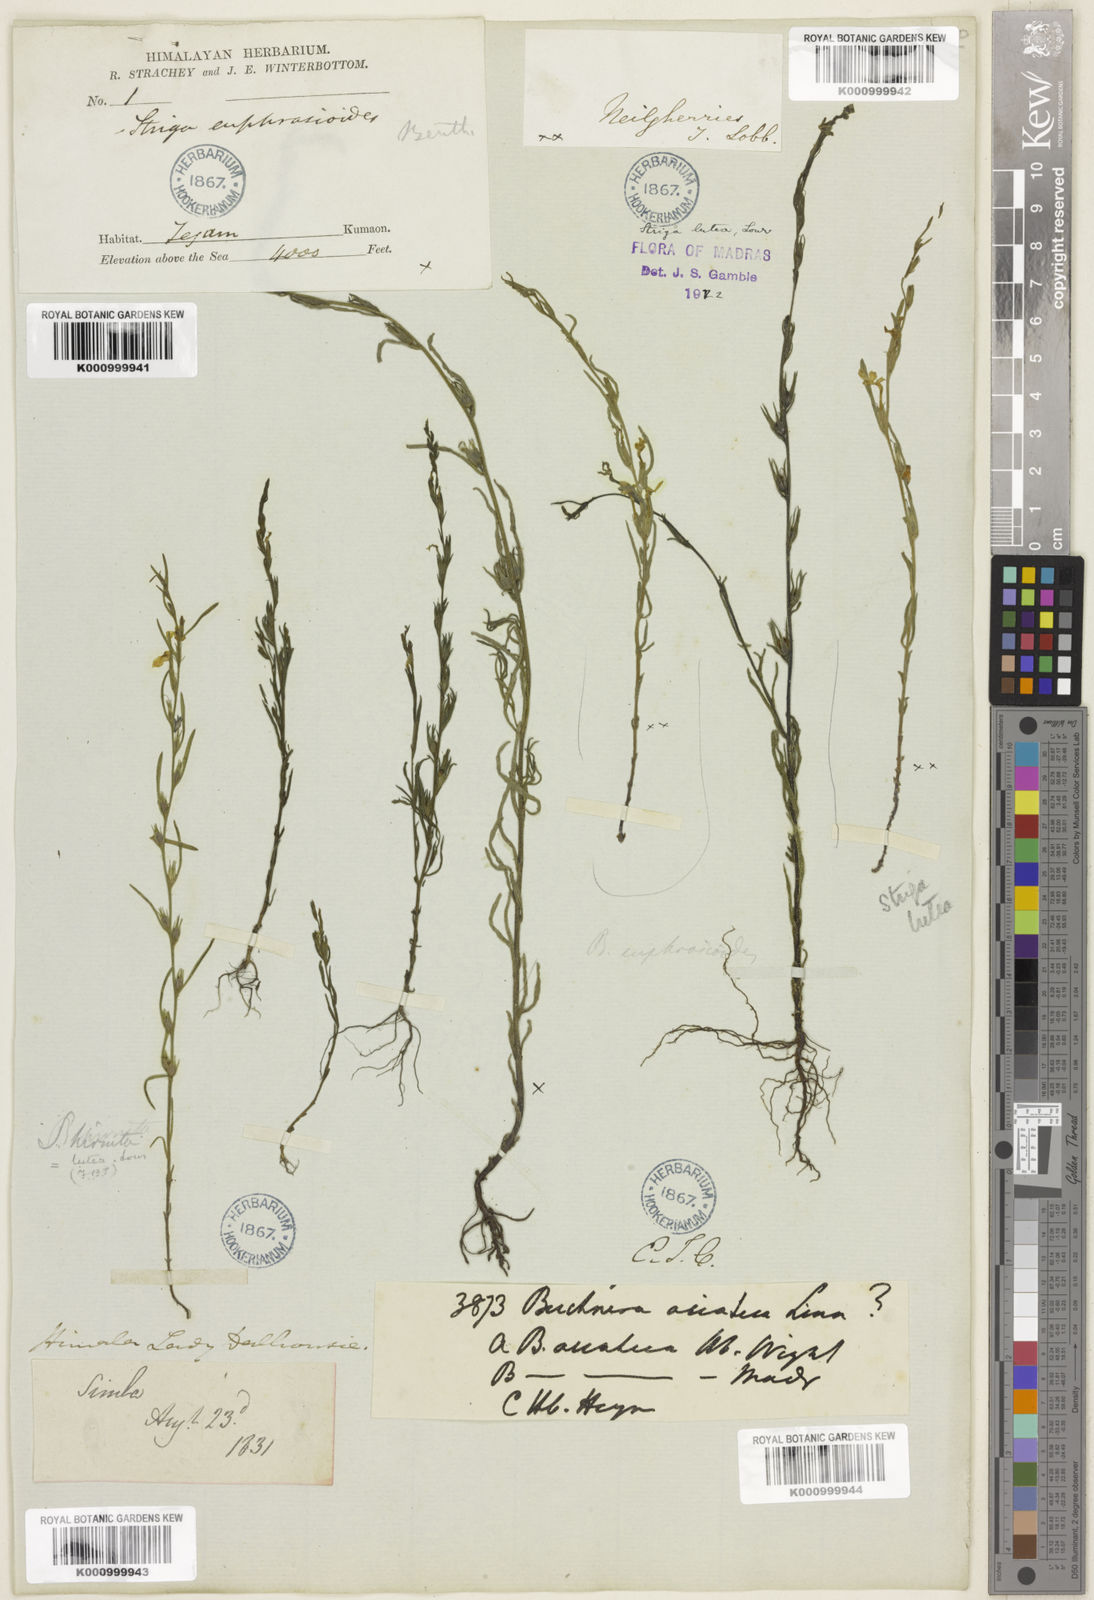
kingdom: Plantae
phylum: Tracheophyta
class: Magnoliopsida
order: Lamiales
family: Orobanchaceae
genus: Striga
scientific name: Striga angustifolia
